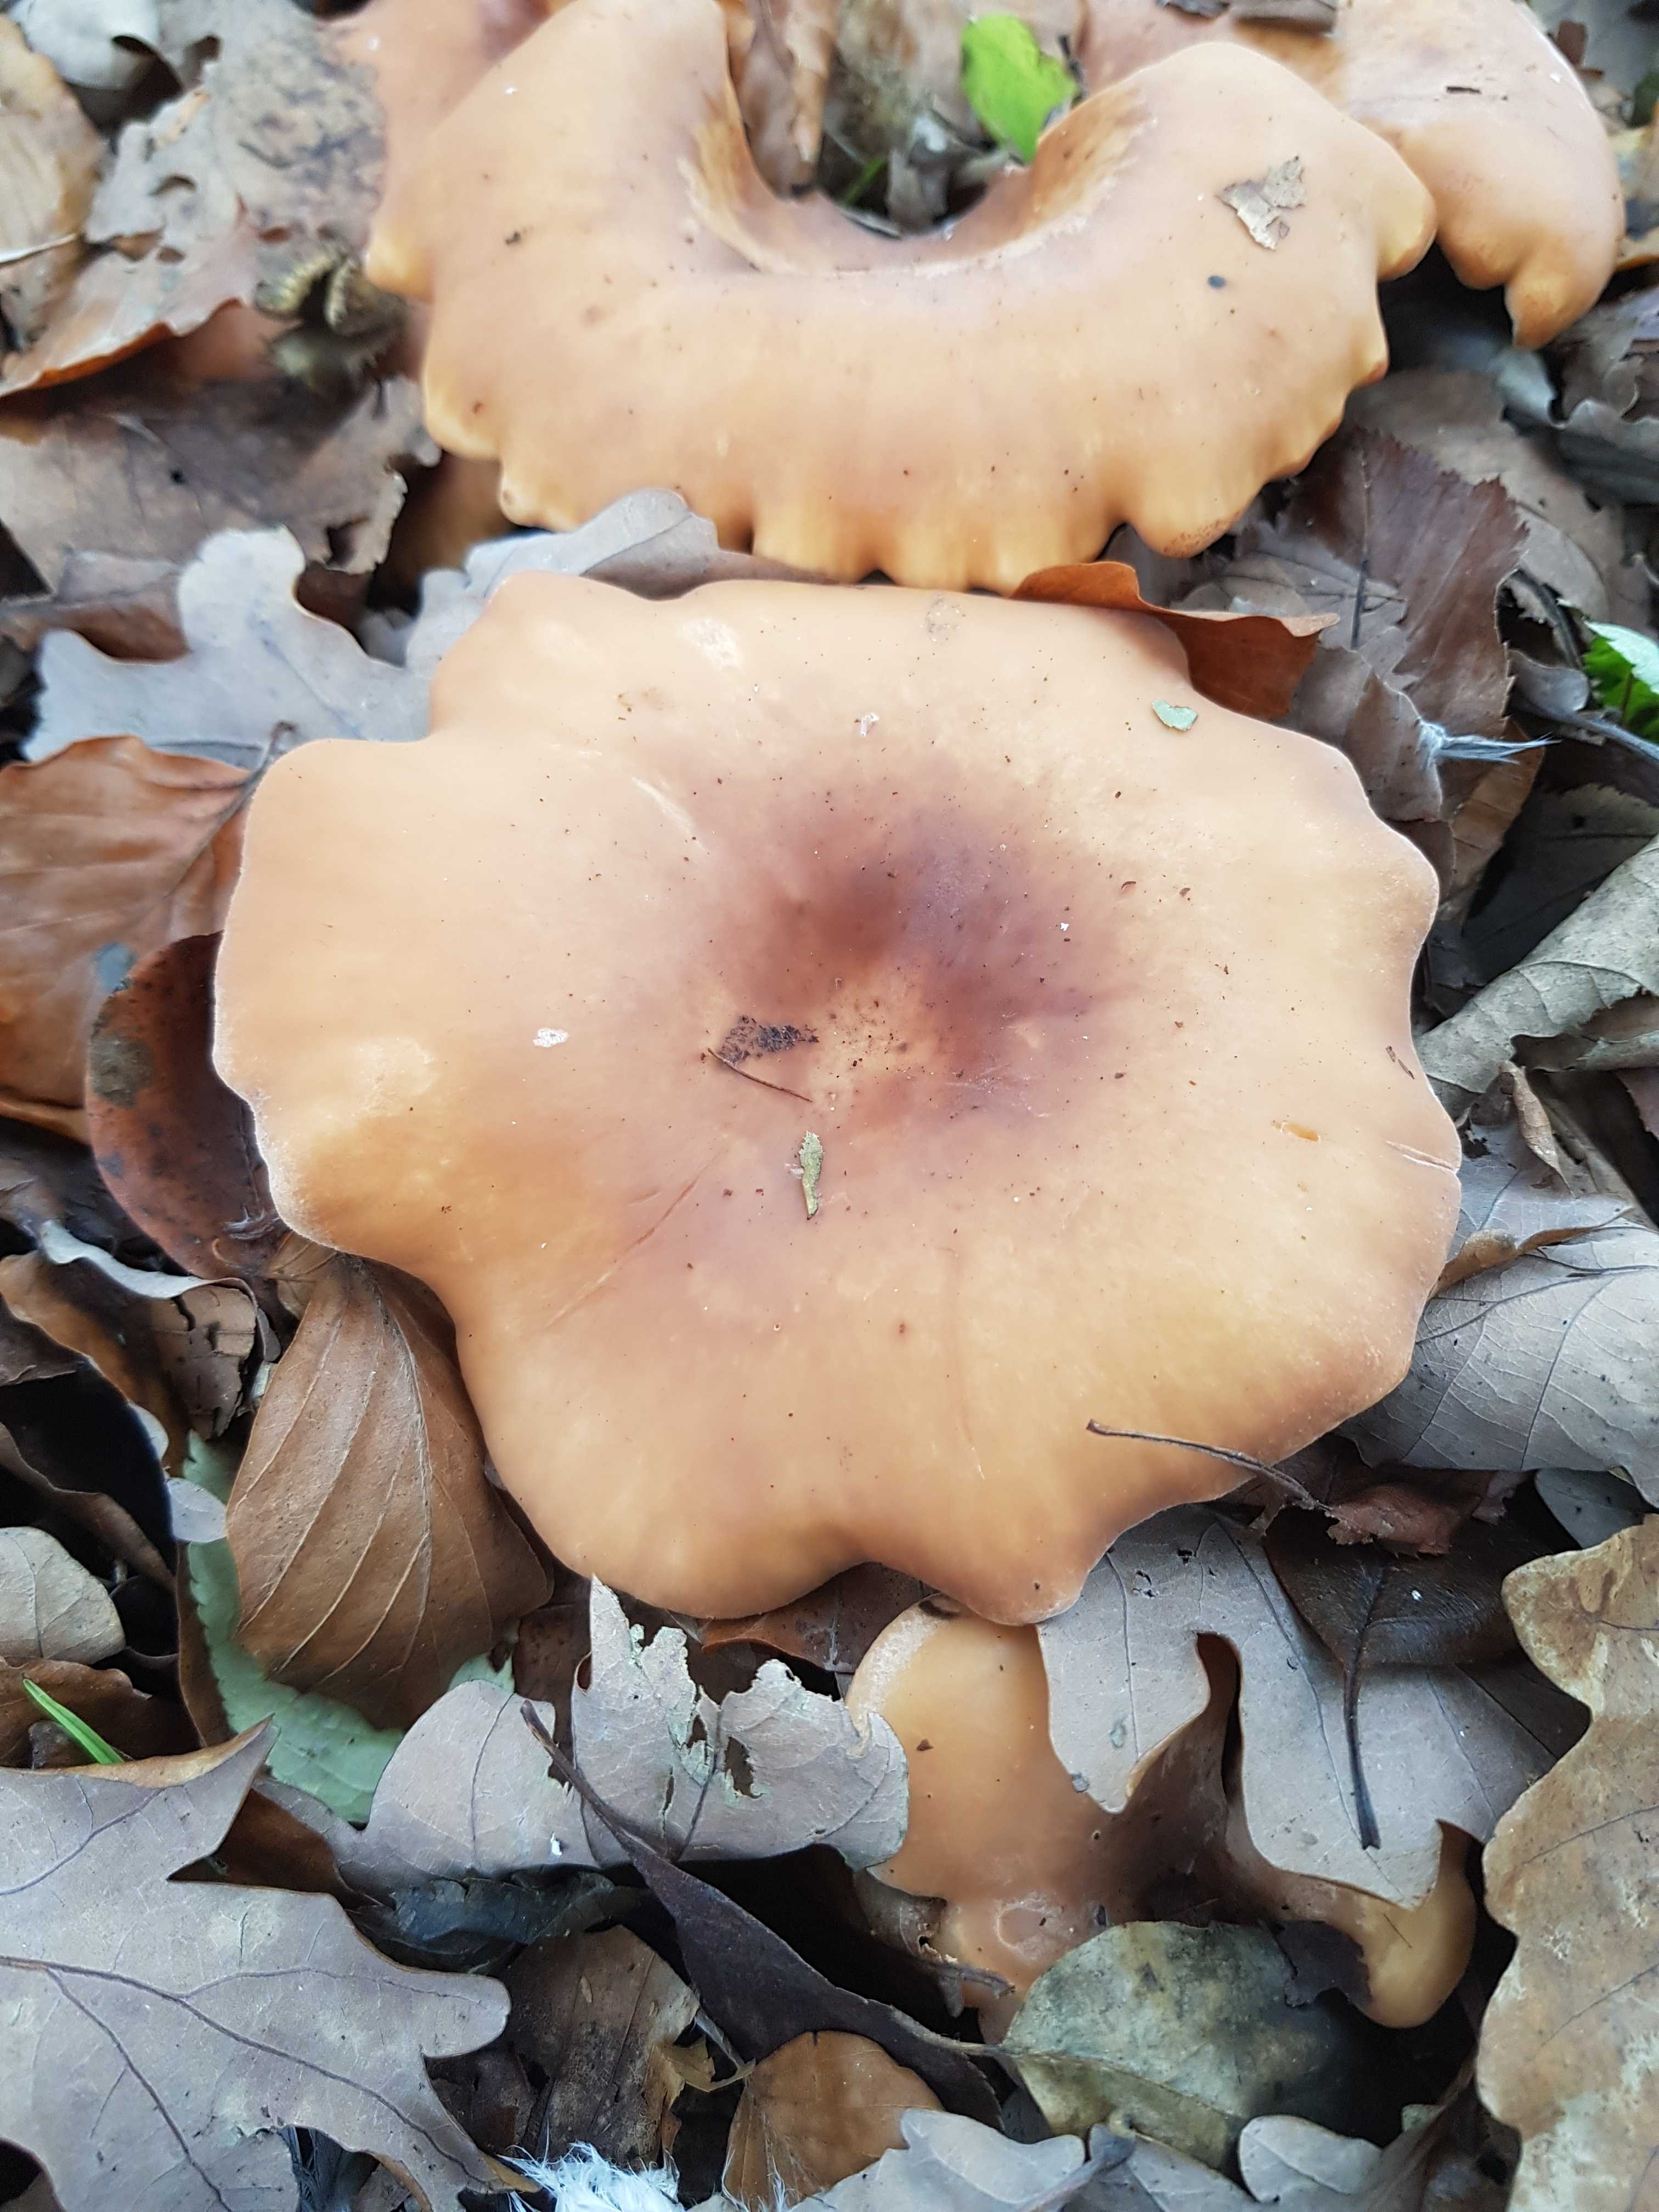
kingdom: Fungi
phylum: Basidiomycota
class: Agaricomycetes
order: Agaricales
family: Tricholomataceae
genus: Paralepista
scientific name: Paralepista flaccida
